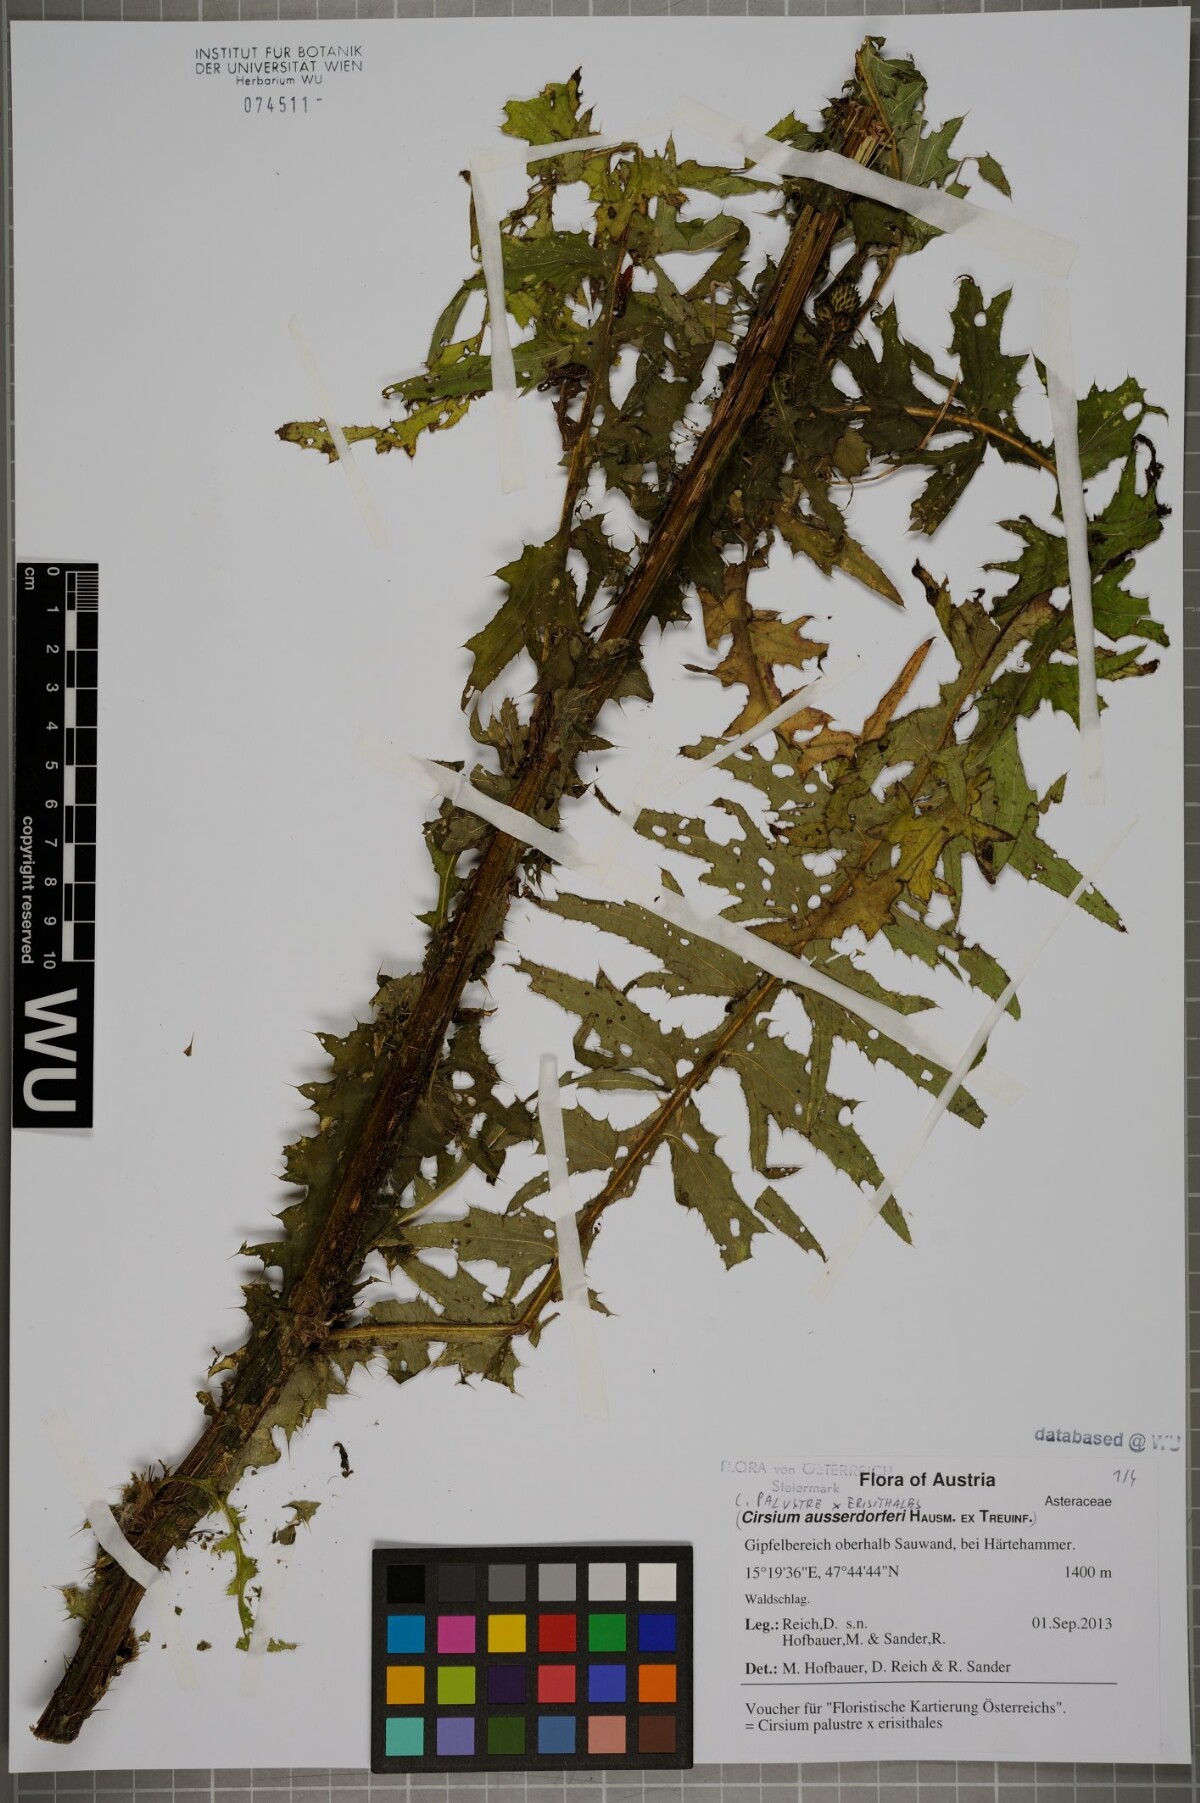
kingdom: Plantae
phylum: Tracheophyta
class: Magnoliopsida
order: Asterales
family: Asteraceae
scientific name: Asteraceae
